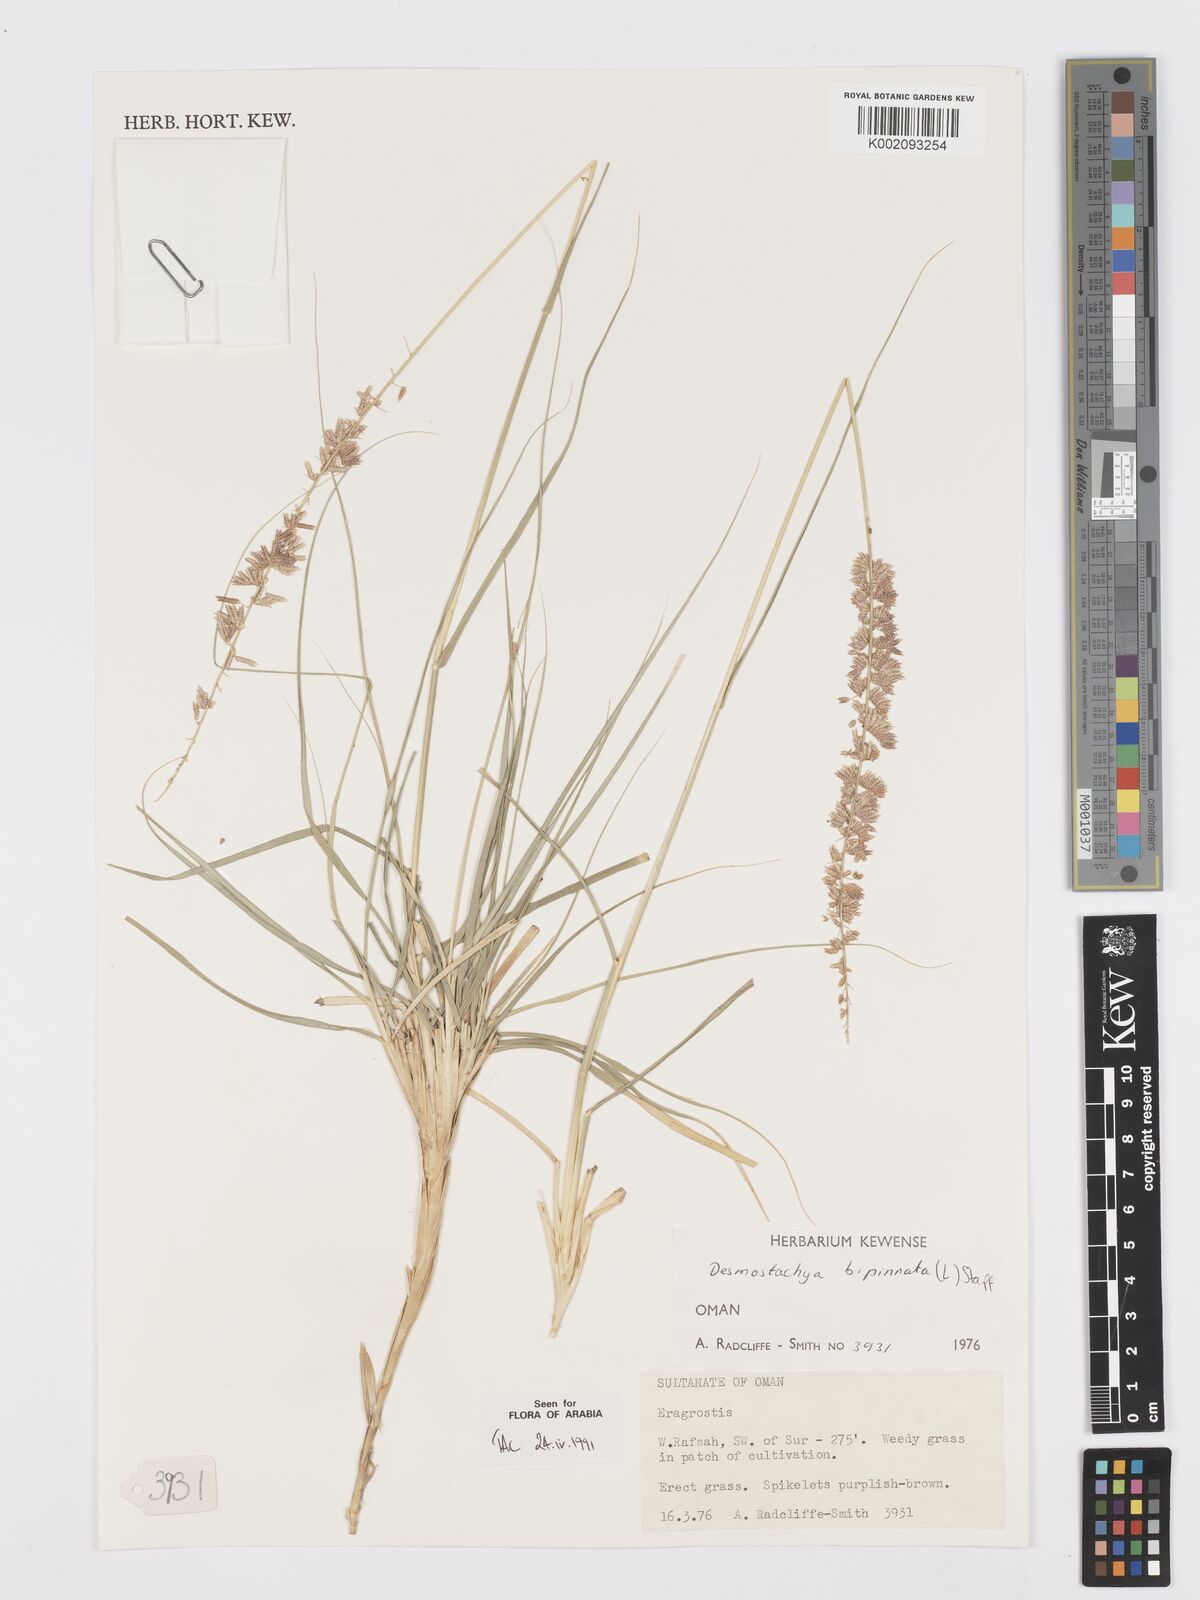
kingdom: Plantae
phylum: Tracheophyta
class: Liliopsida
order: Poales
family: Poaceae
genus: Desmostachya
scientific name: Desmostachya bipinnata
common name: Crowfoot grass
